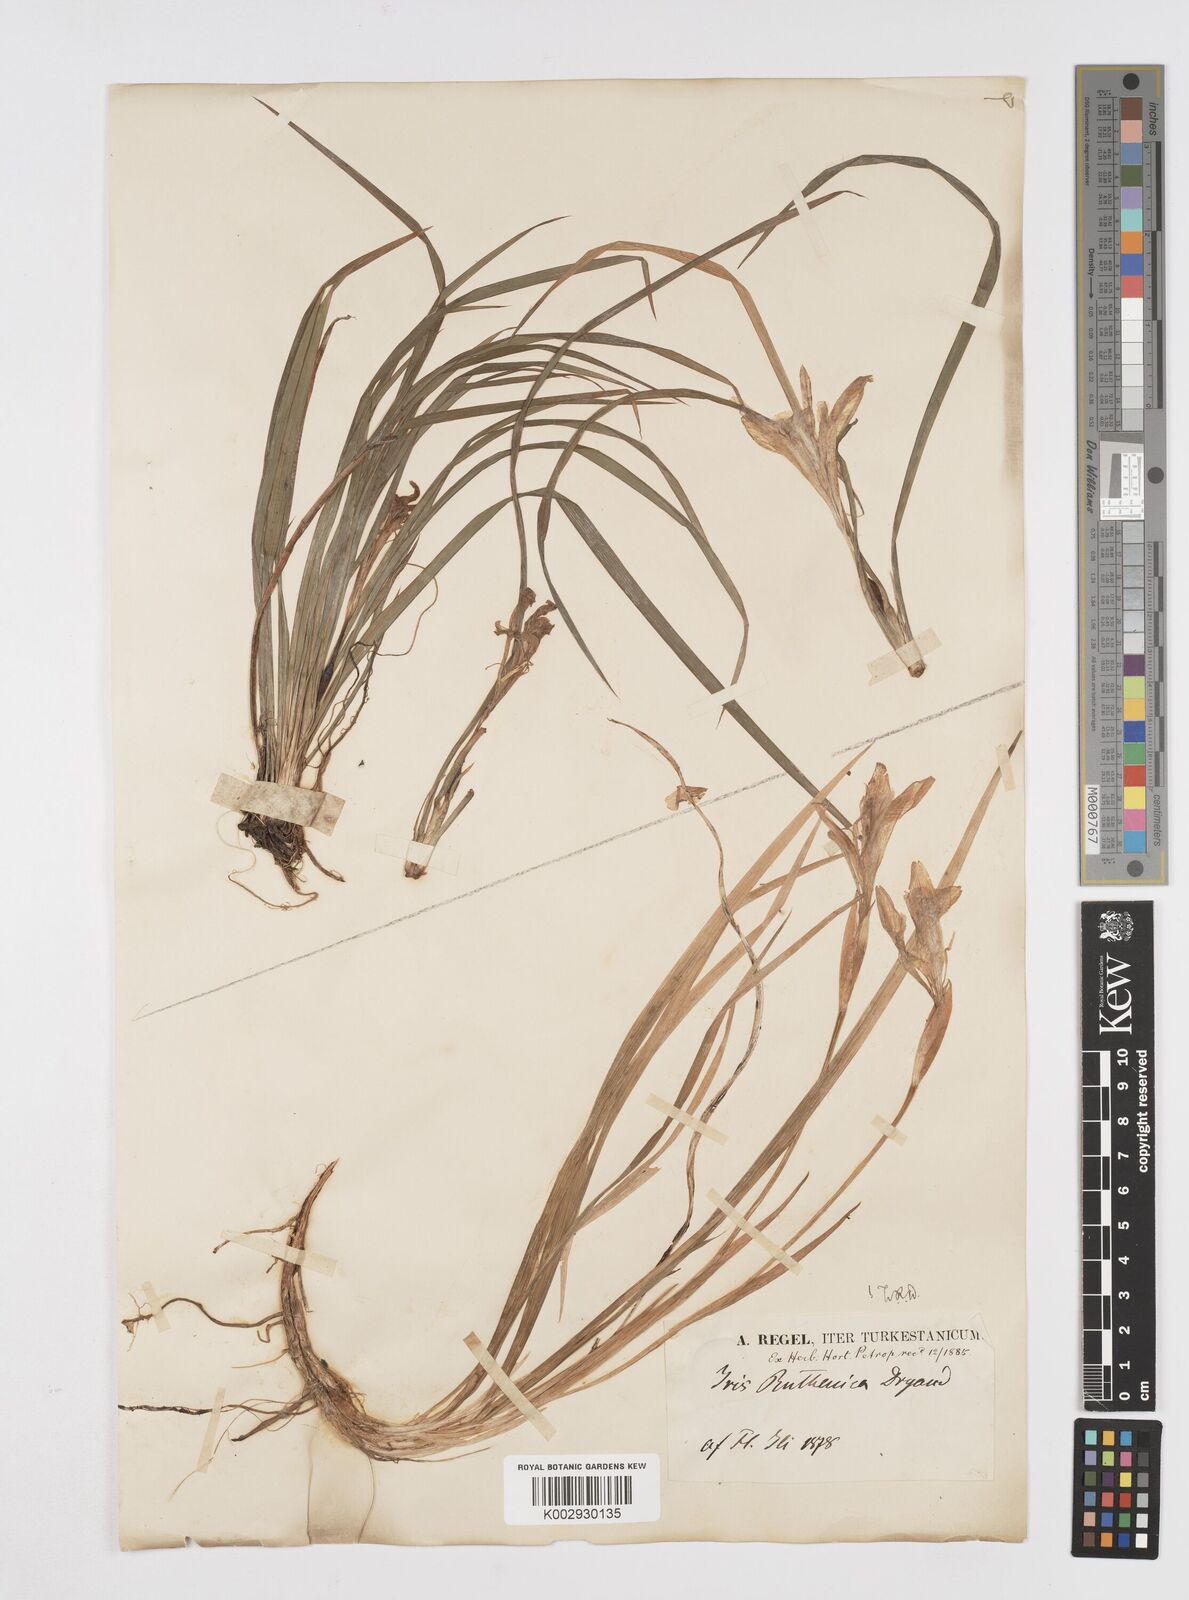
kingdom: Plantae
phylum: Tracheophyta
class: Liliopsida
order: Asparagales
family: Iridaceae
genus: Iris
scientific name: Iris ruthenica
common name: Purple-bract iris
